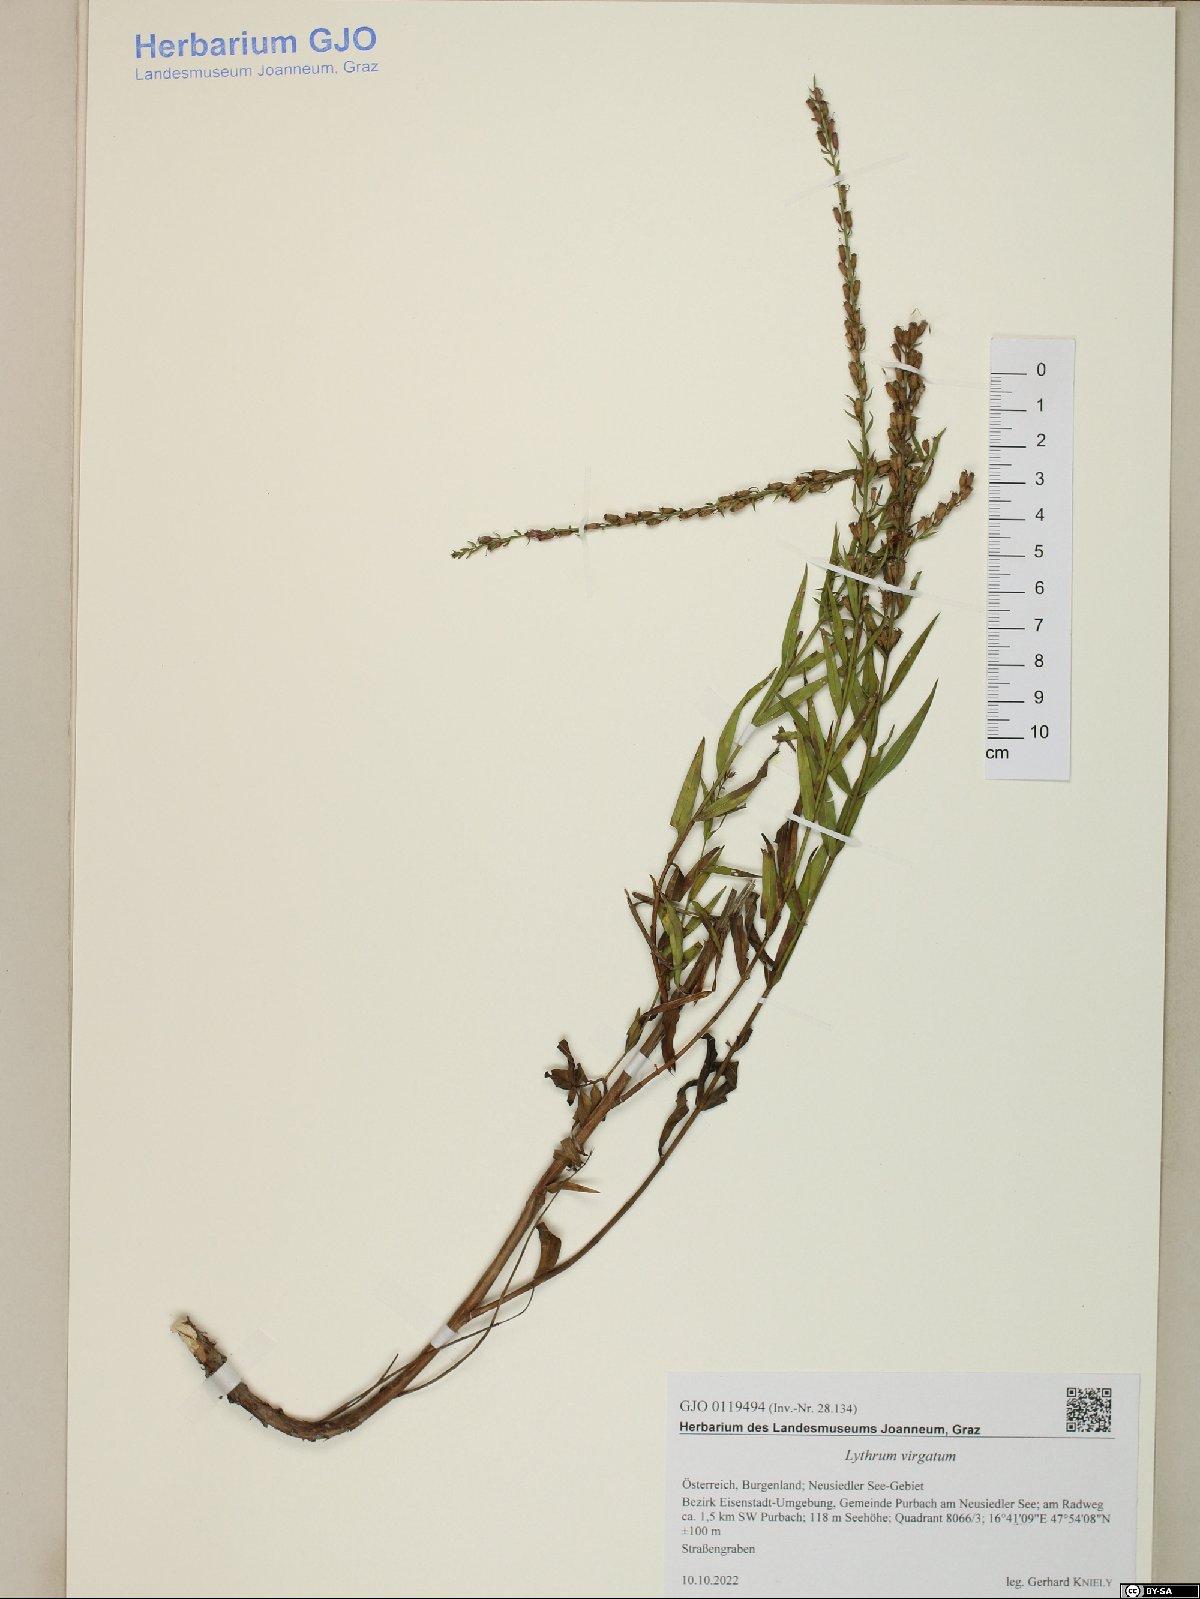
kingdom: Plantae
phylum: Tracheophyta
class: Magnoliopsida
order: Myrtales
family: Lythraceae
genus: Lythrum
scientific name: Lythrum virgatum
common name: European wand loosestrife
